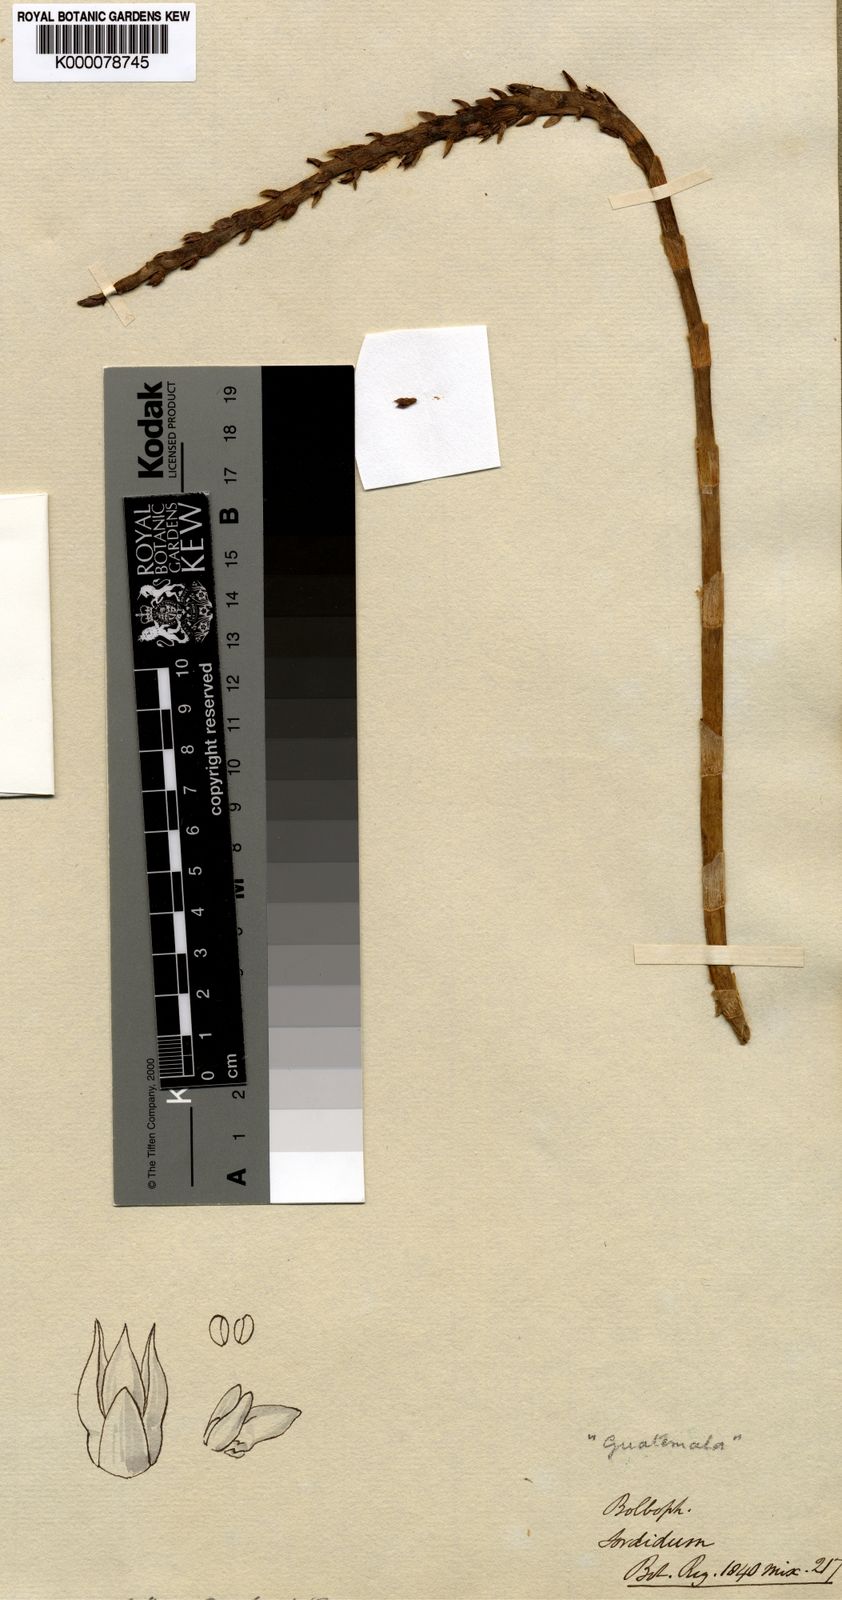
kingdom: Plantae
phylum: Tracheophyta
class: Liliopsida
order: Asparagales
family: Orchidaceae
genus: Bulbophyllum
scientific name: Bulbophyllum sordidum
